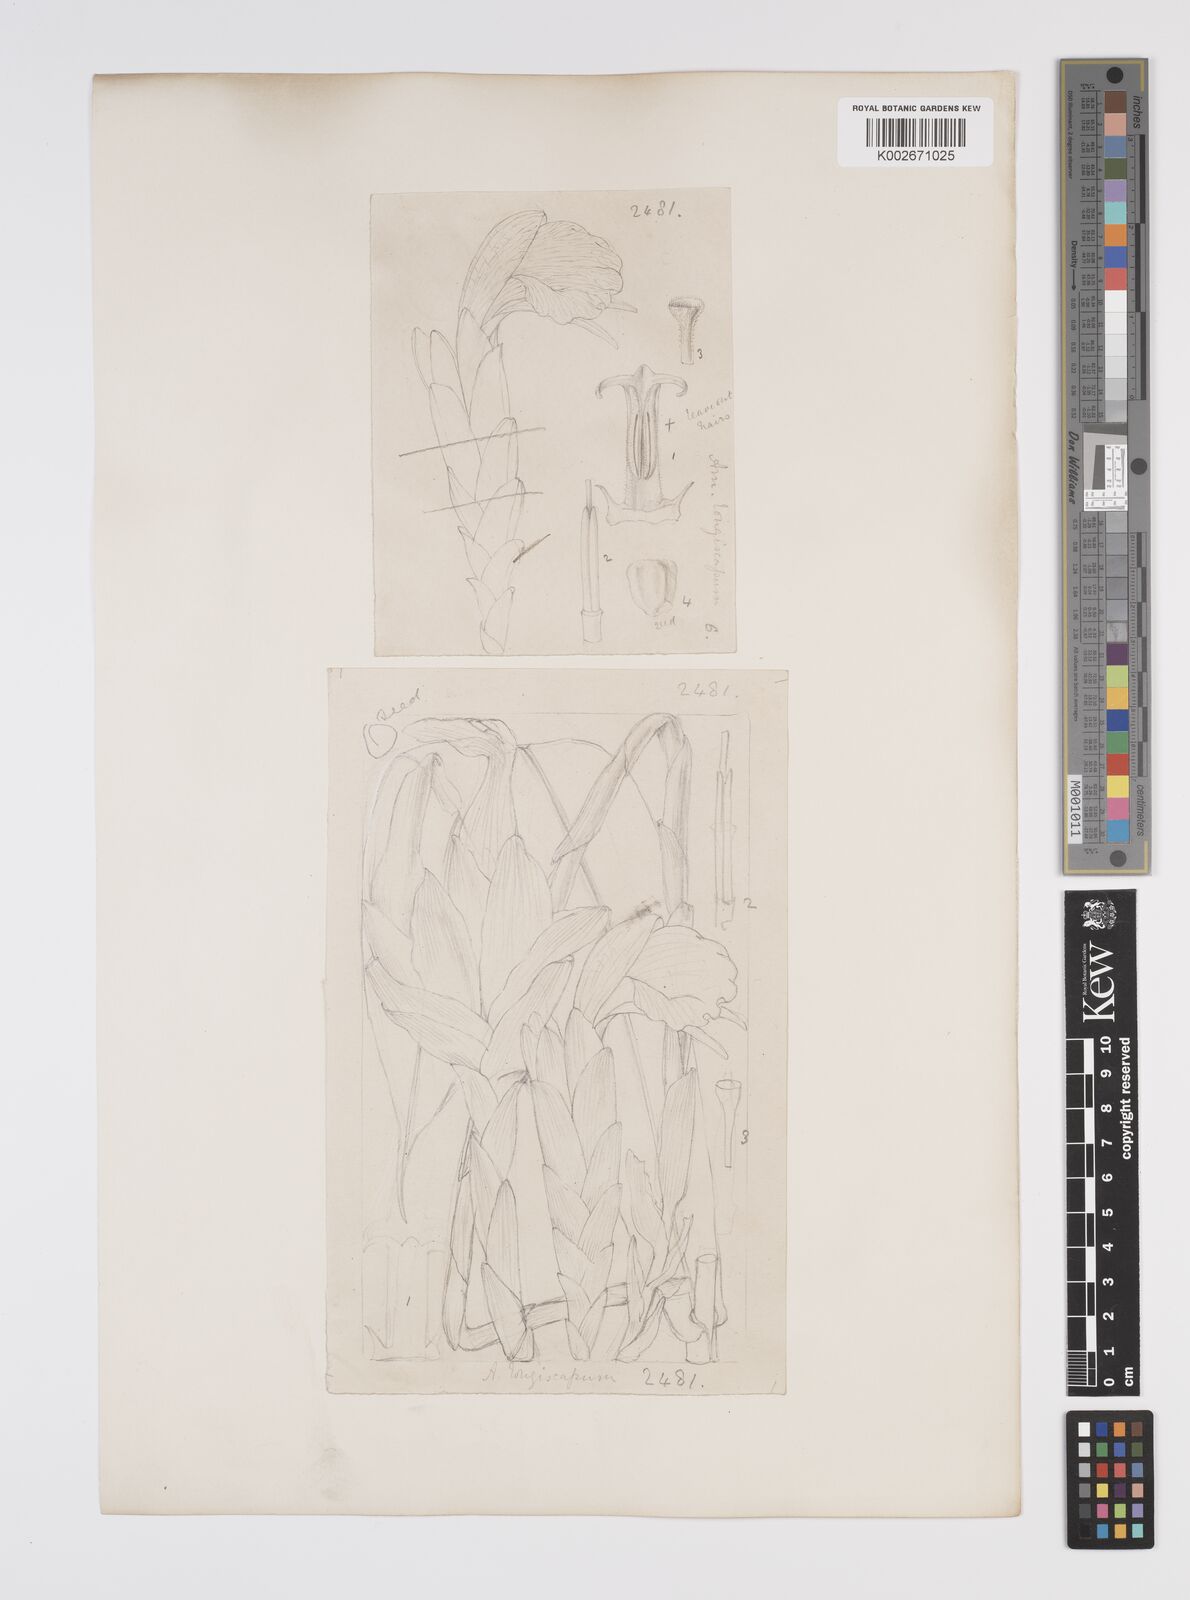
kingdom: Plantae
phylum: Tracheophyta
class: Liliopsida
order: Zingiberales
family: Zingiberaceae
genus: Aframomum
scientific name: Aframomum longiscapum
